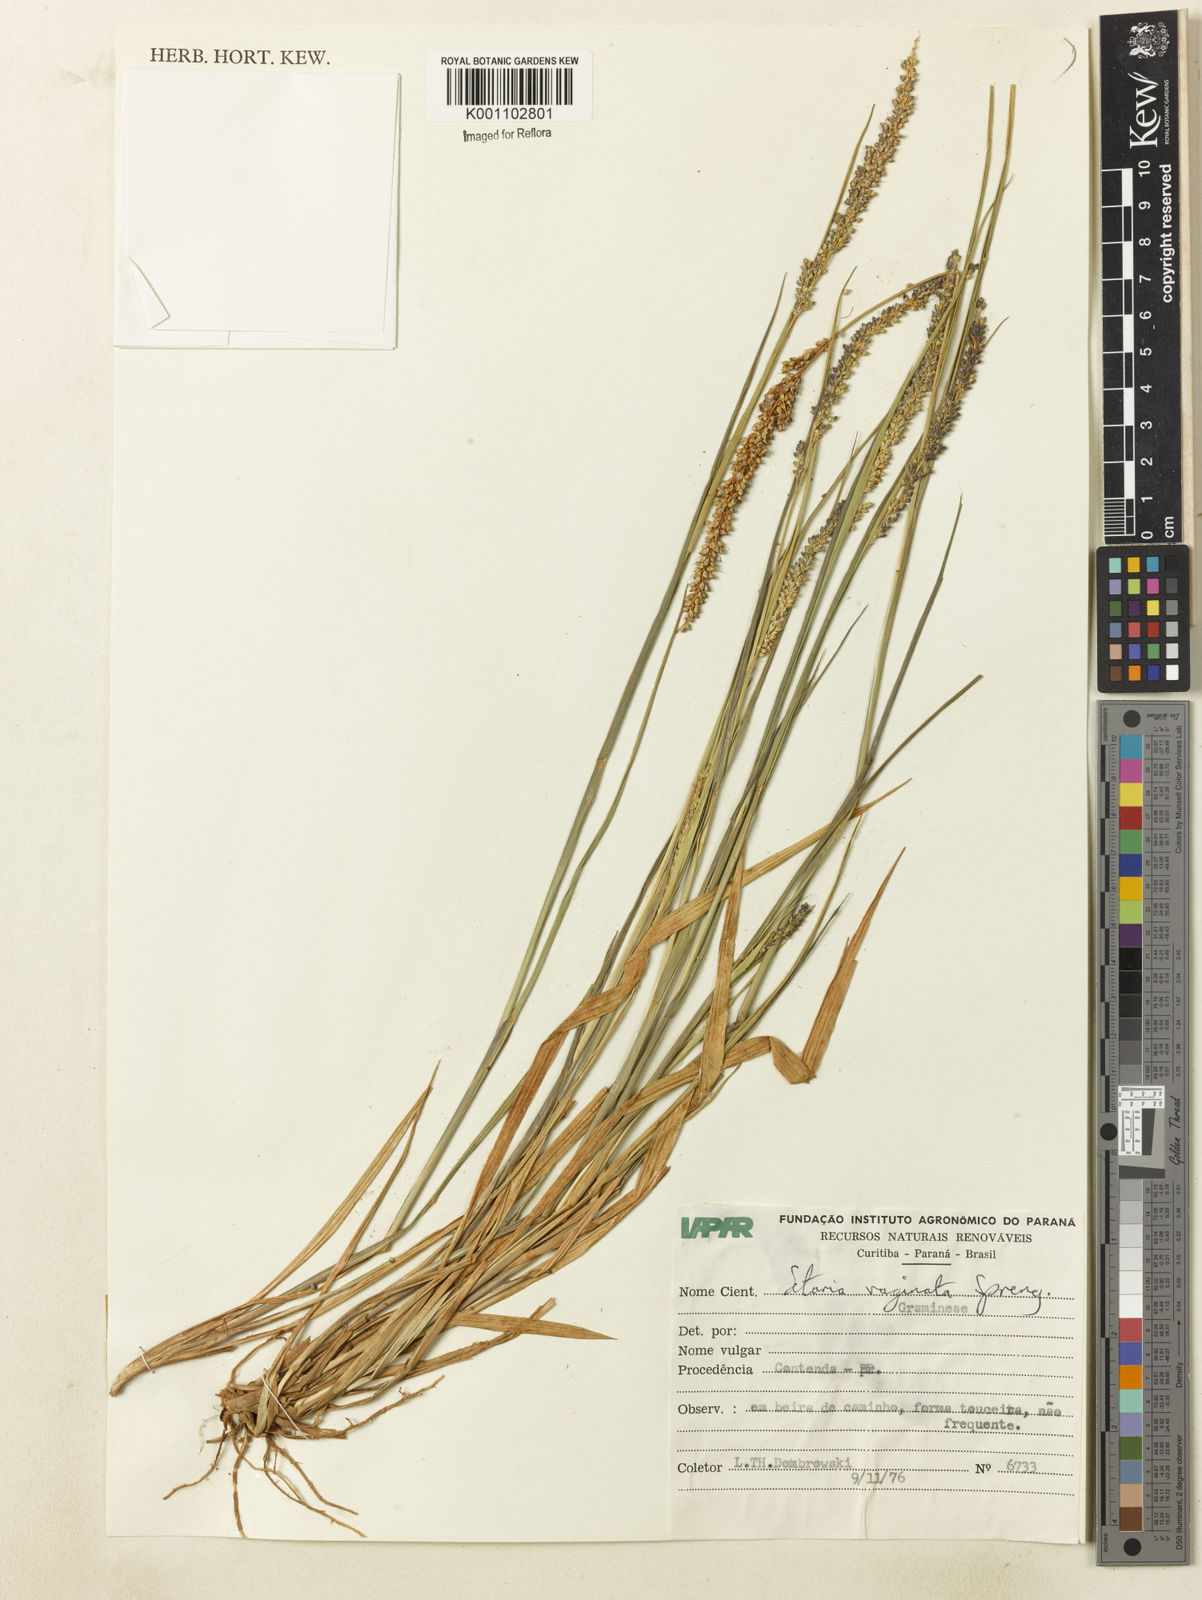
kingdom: Plantae
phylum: Tracheophyta
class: Liliopsida
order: Poales
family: Poaceae
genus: Setaria
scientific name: Setaria setosa
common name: West indies bristle grass
